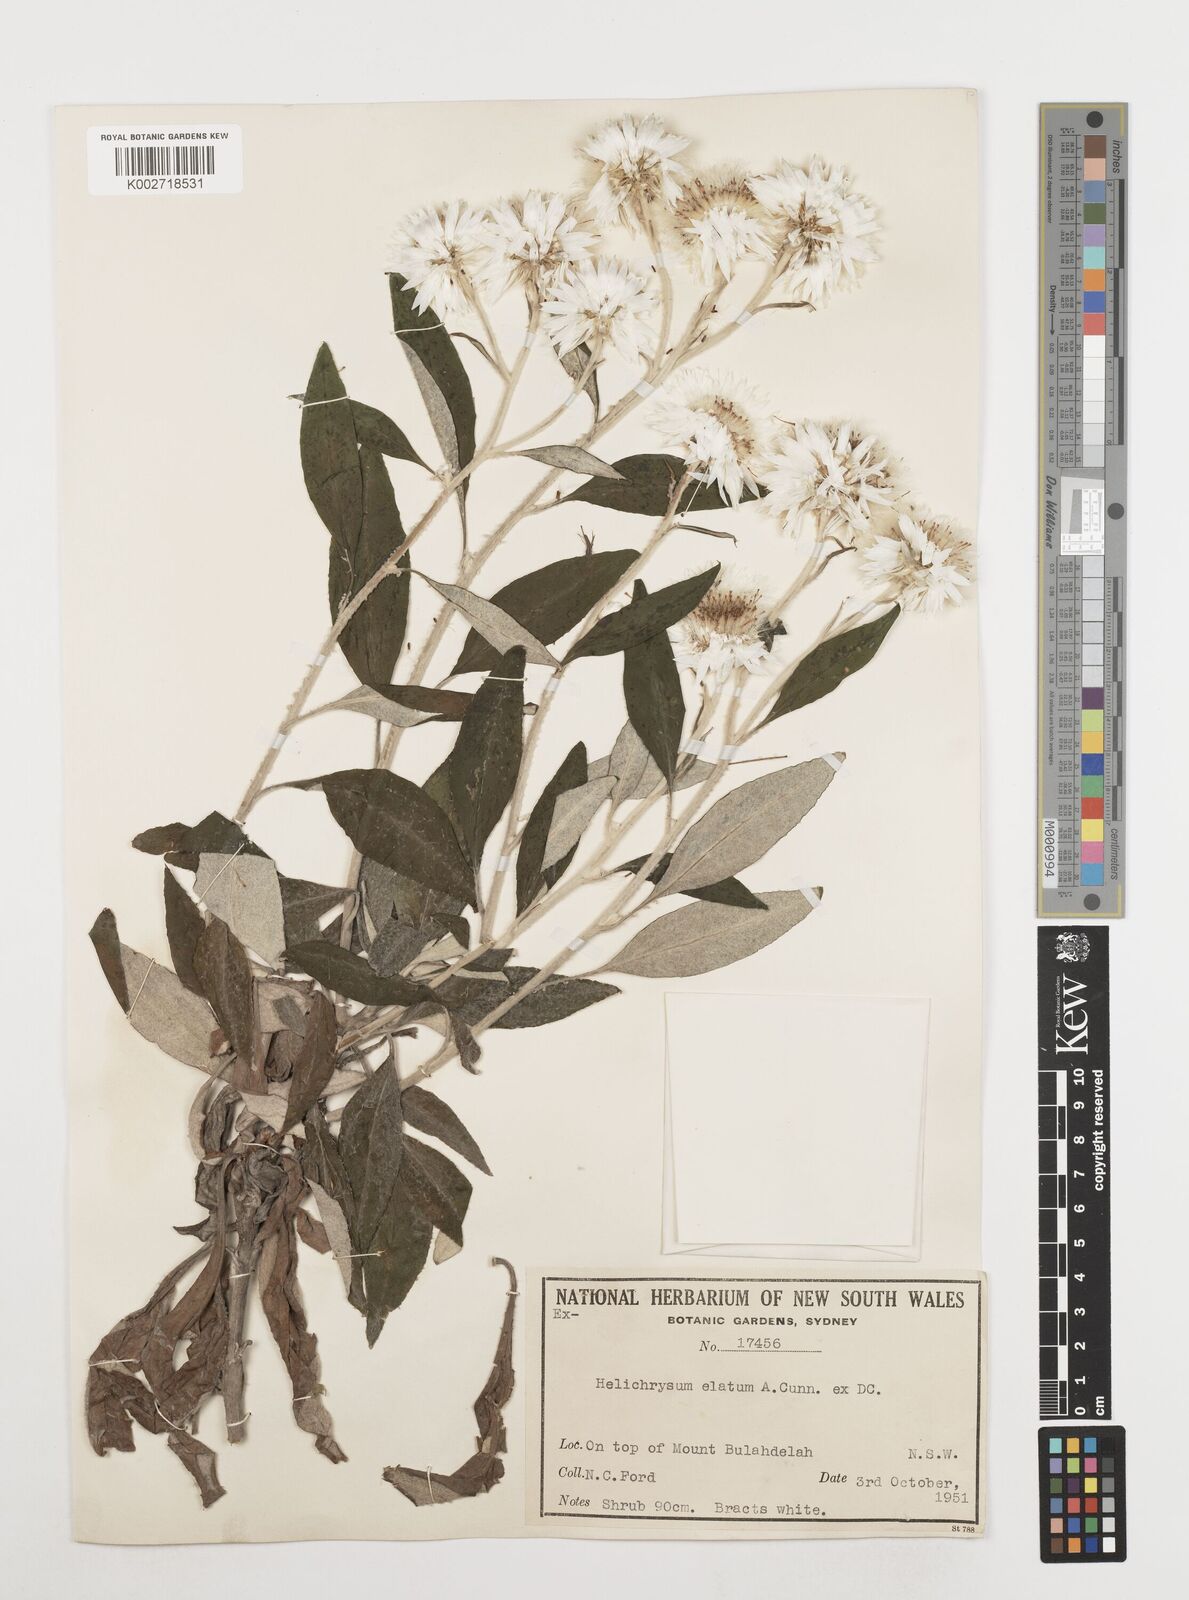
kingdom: Plantae
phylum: Tracheophyta
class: Magnoliopsida
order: Asterales
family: Asteraceae
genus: Leucozoma
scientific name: Leucozoma elatum
